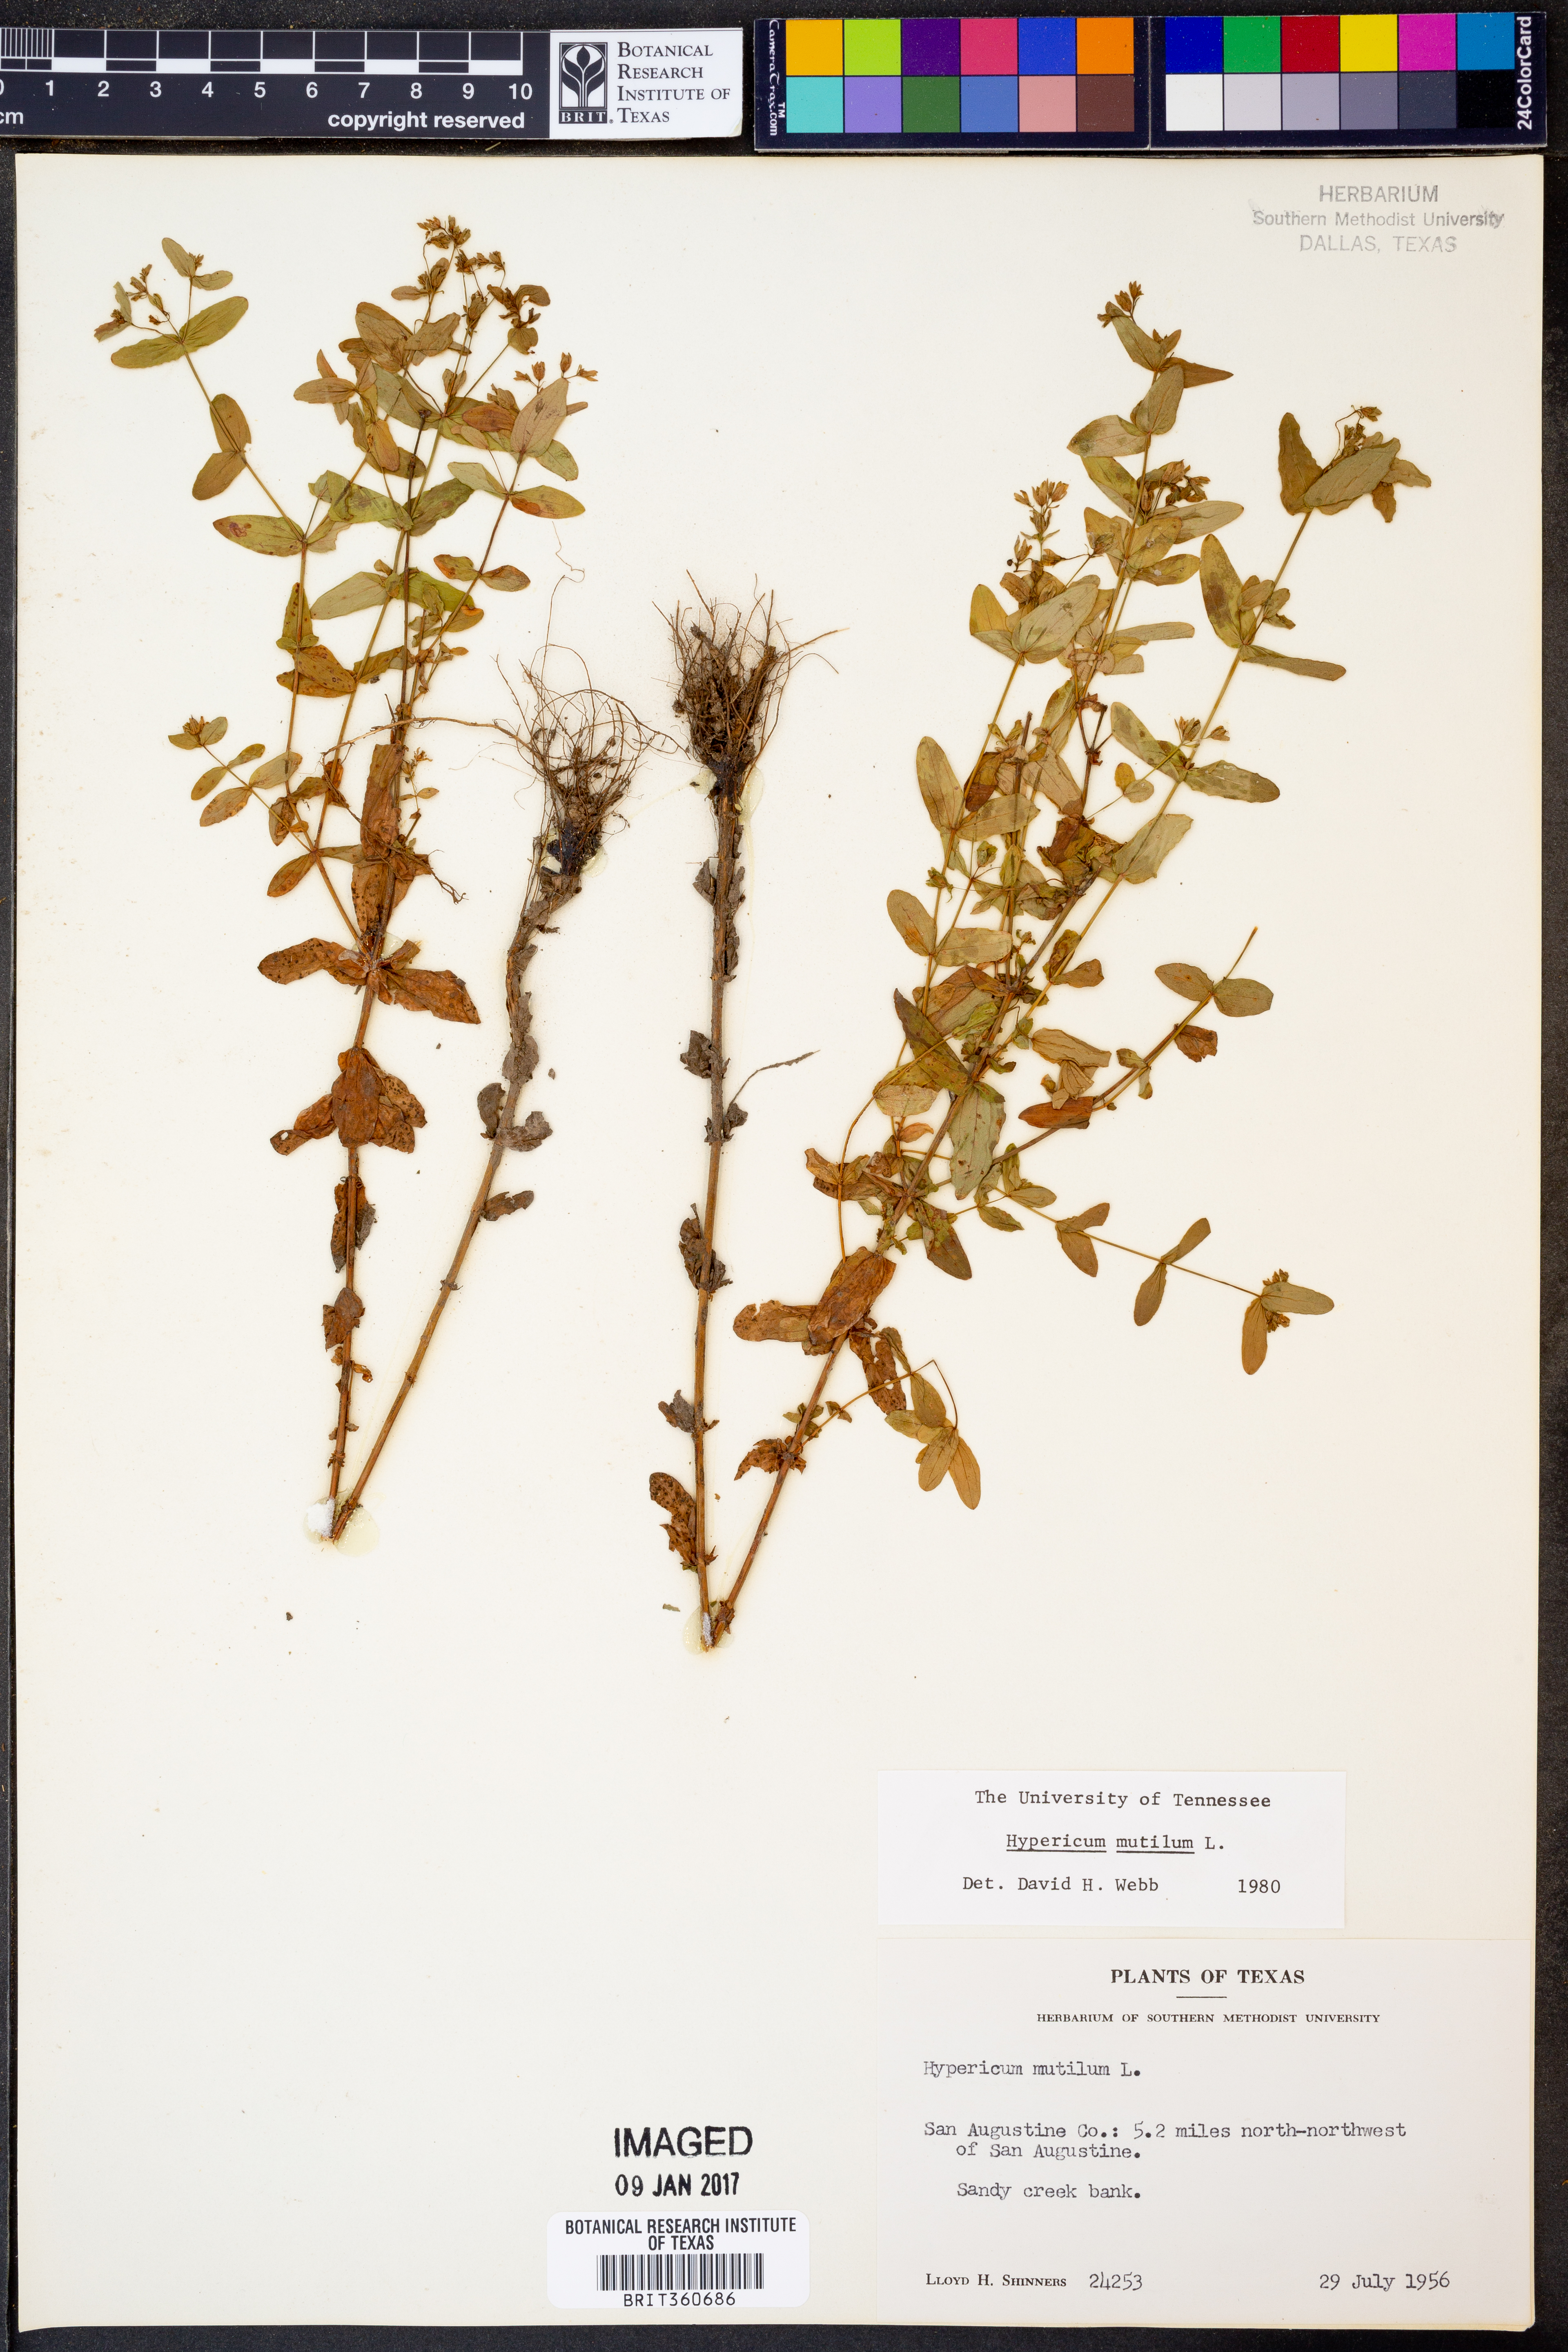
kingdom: Plantae
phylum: Tracheophyta
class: Magnoliopsida
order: Malpighiales
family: Hypericaceae
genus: Hypericum
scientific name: Hypericum mutilum
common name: Dwarf st. john's-wort
